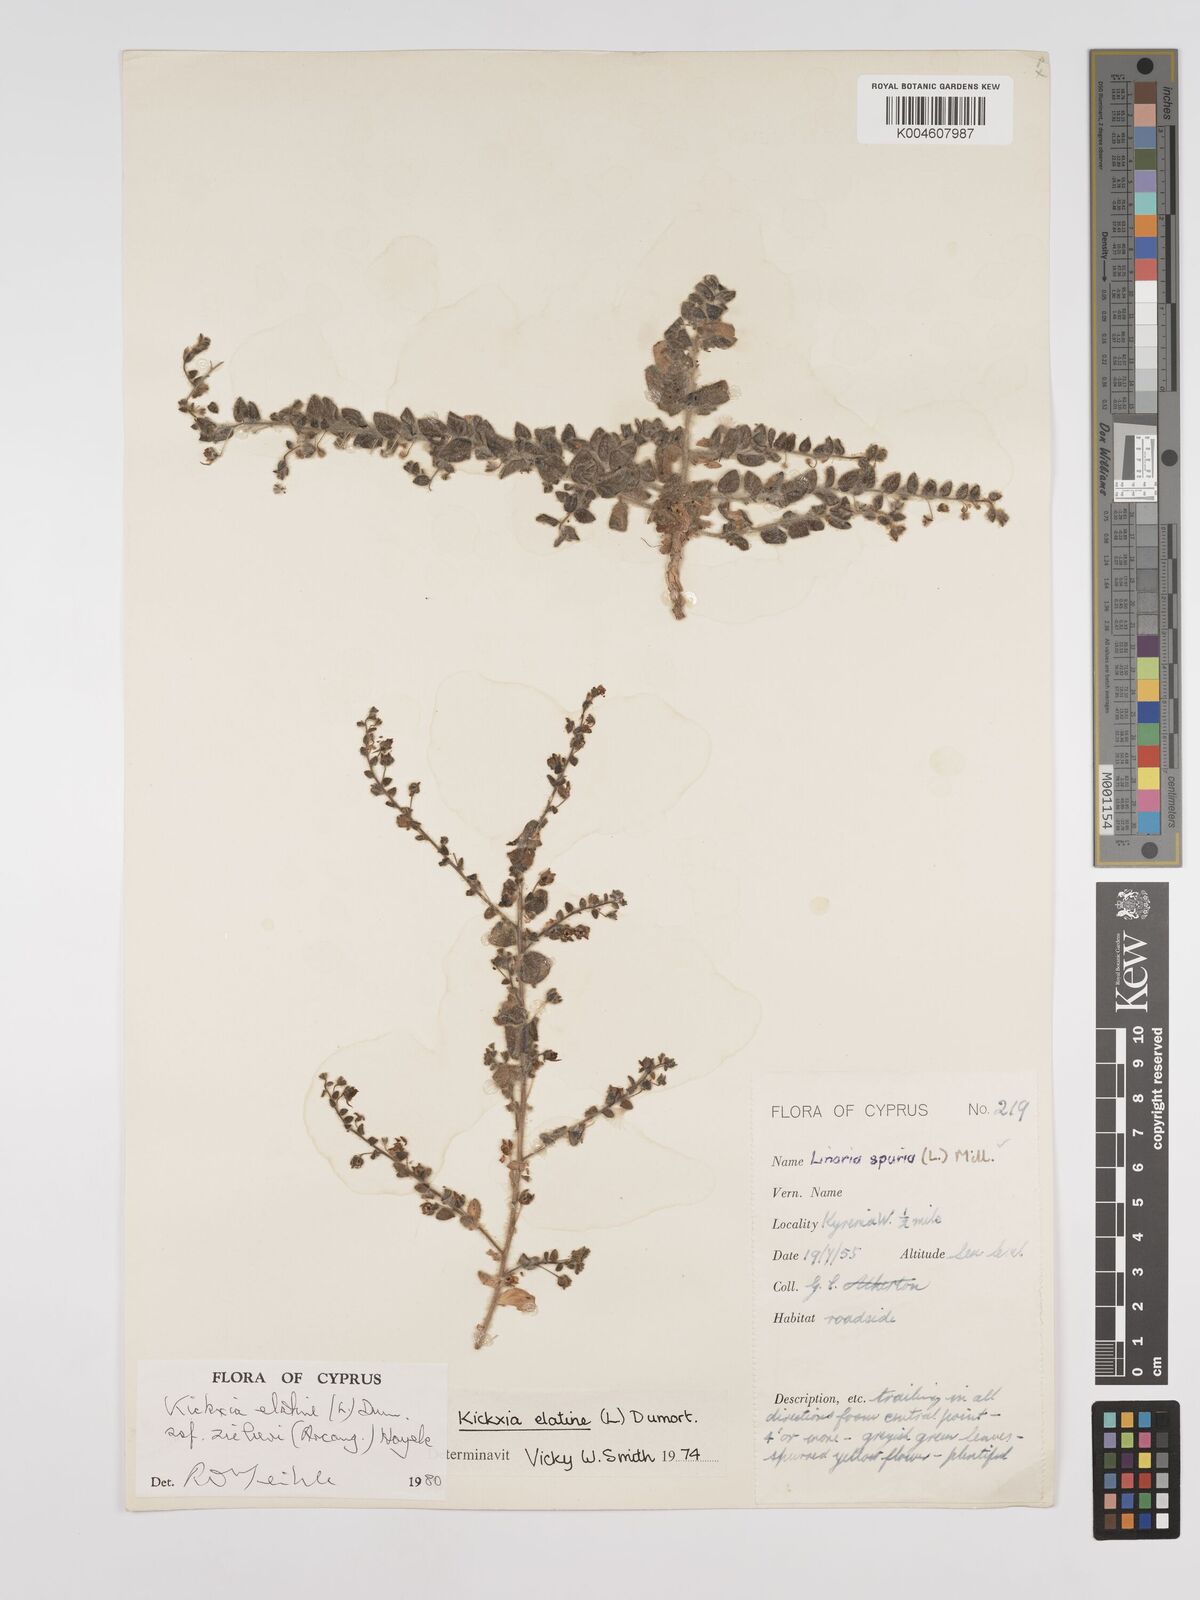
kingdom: Plantae
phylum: Tracheophyta
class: Magnoliopsida
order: Lamiales
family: Plantaginaceae
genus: Kickxia
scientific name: Kickxia elatine
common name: Sharp-leaved fluellen
